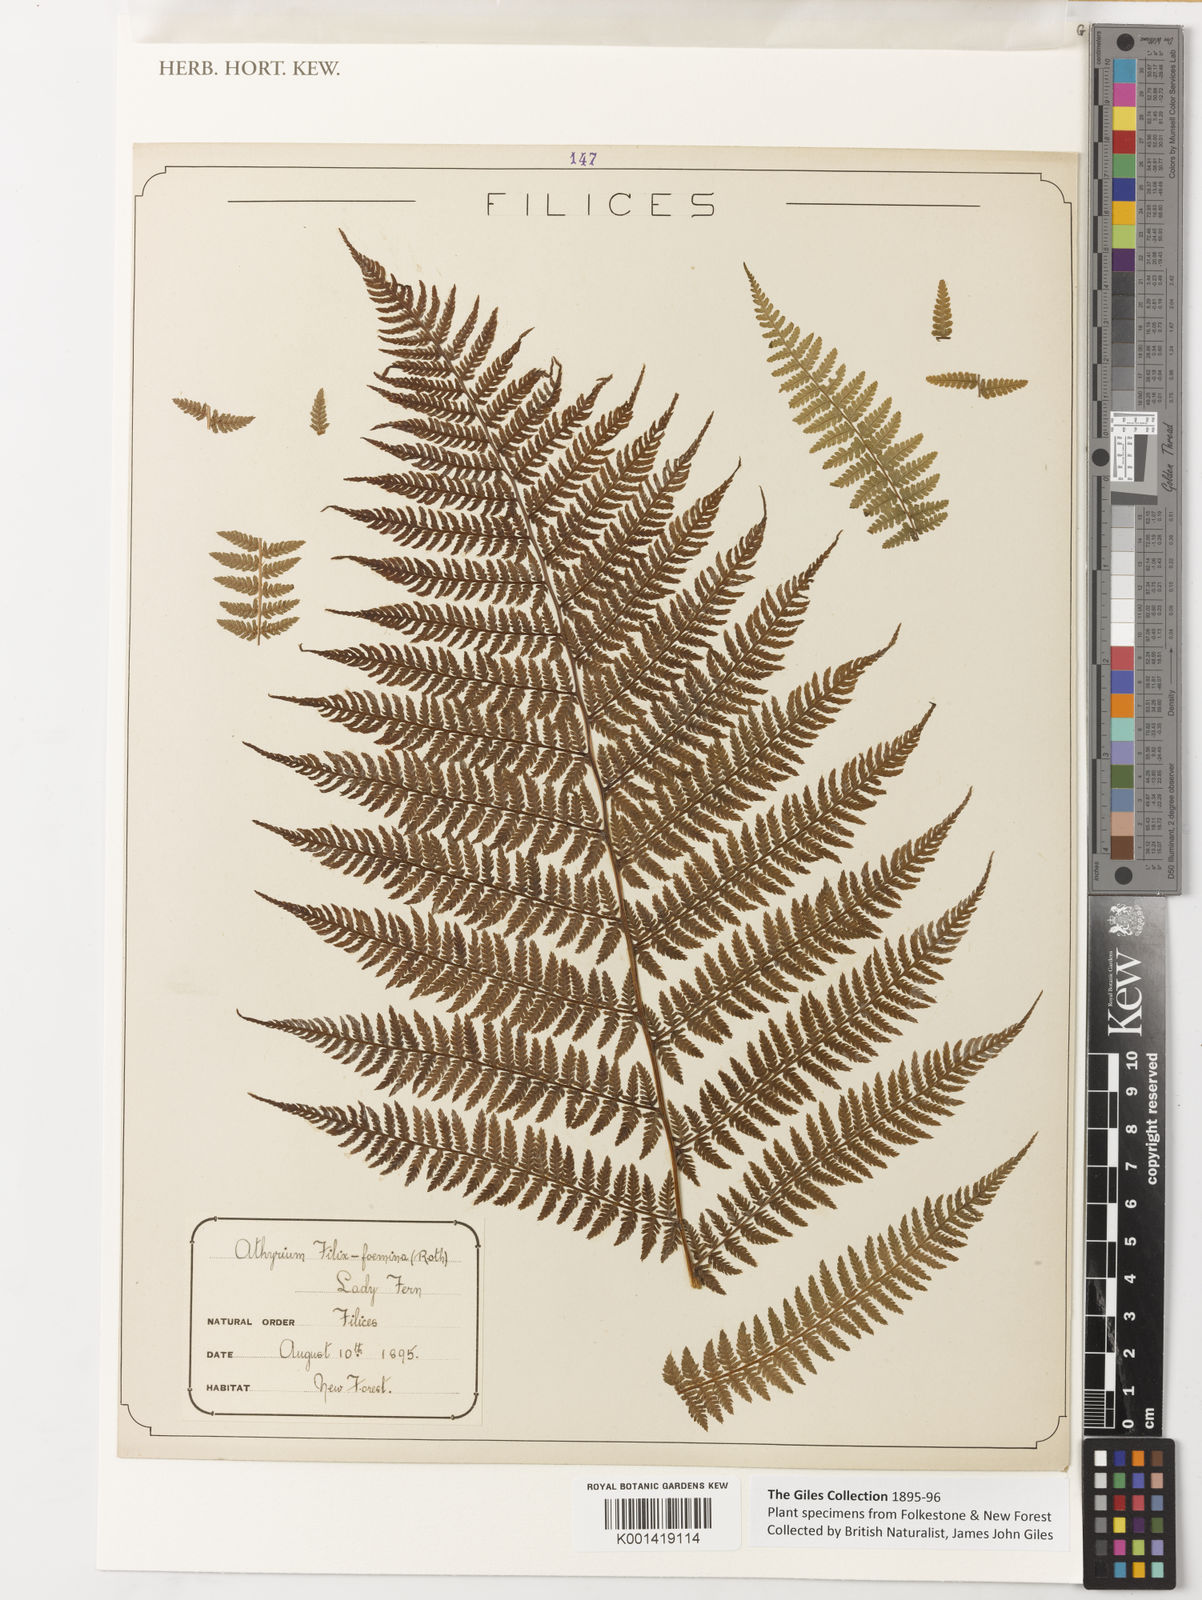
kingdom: Plantae
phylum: Tracheophyta
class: Polypodiopsida
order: Polypodiales
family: Athyriaceae
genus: Athyrium
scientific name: Athyrium
